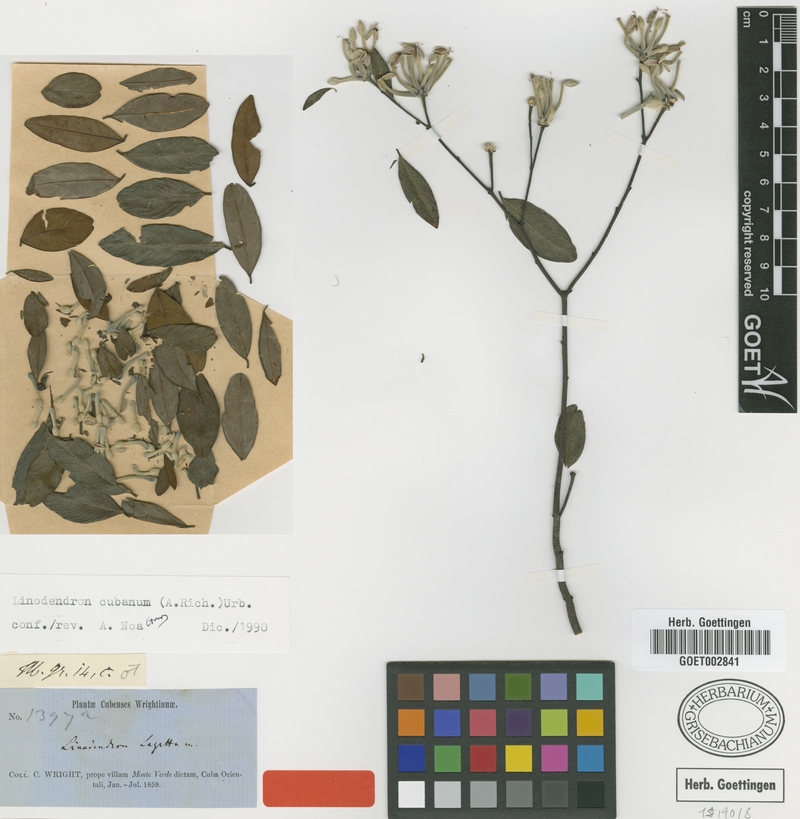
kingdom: Plantae
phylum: Tracheophyta
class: Magnoliopsida
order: Malvales
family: Thymelaeaceae
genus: Linodendron
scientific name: Linodendron cubanum
